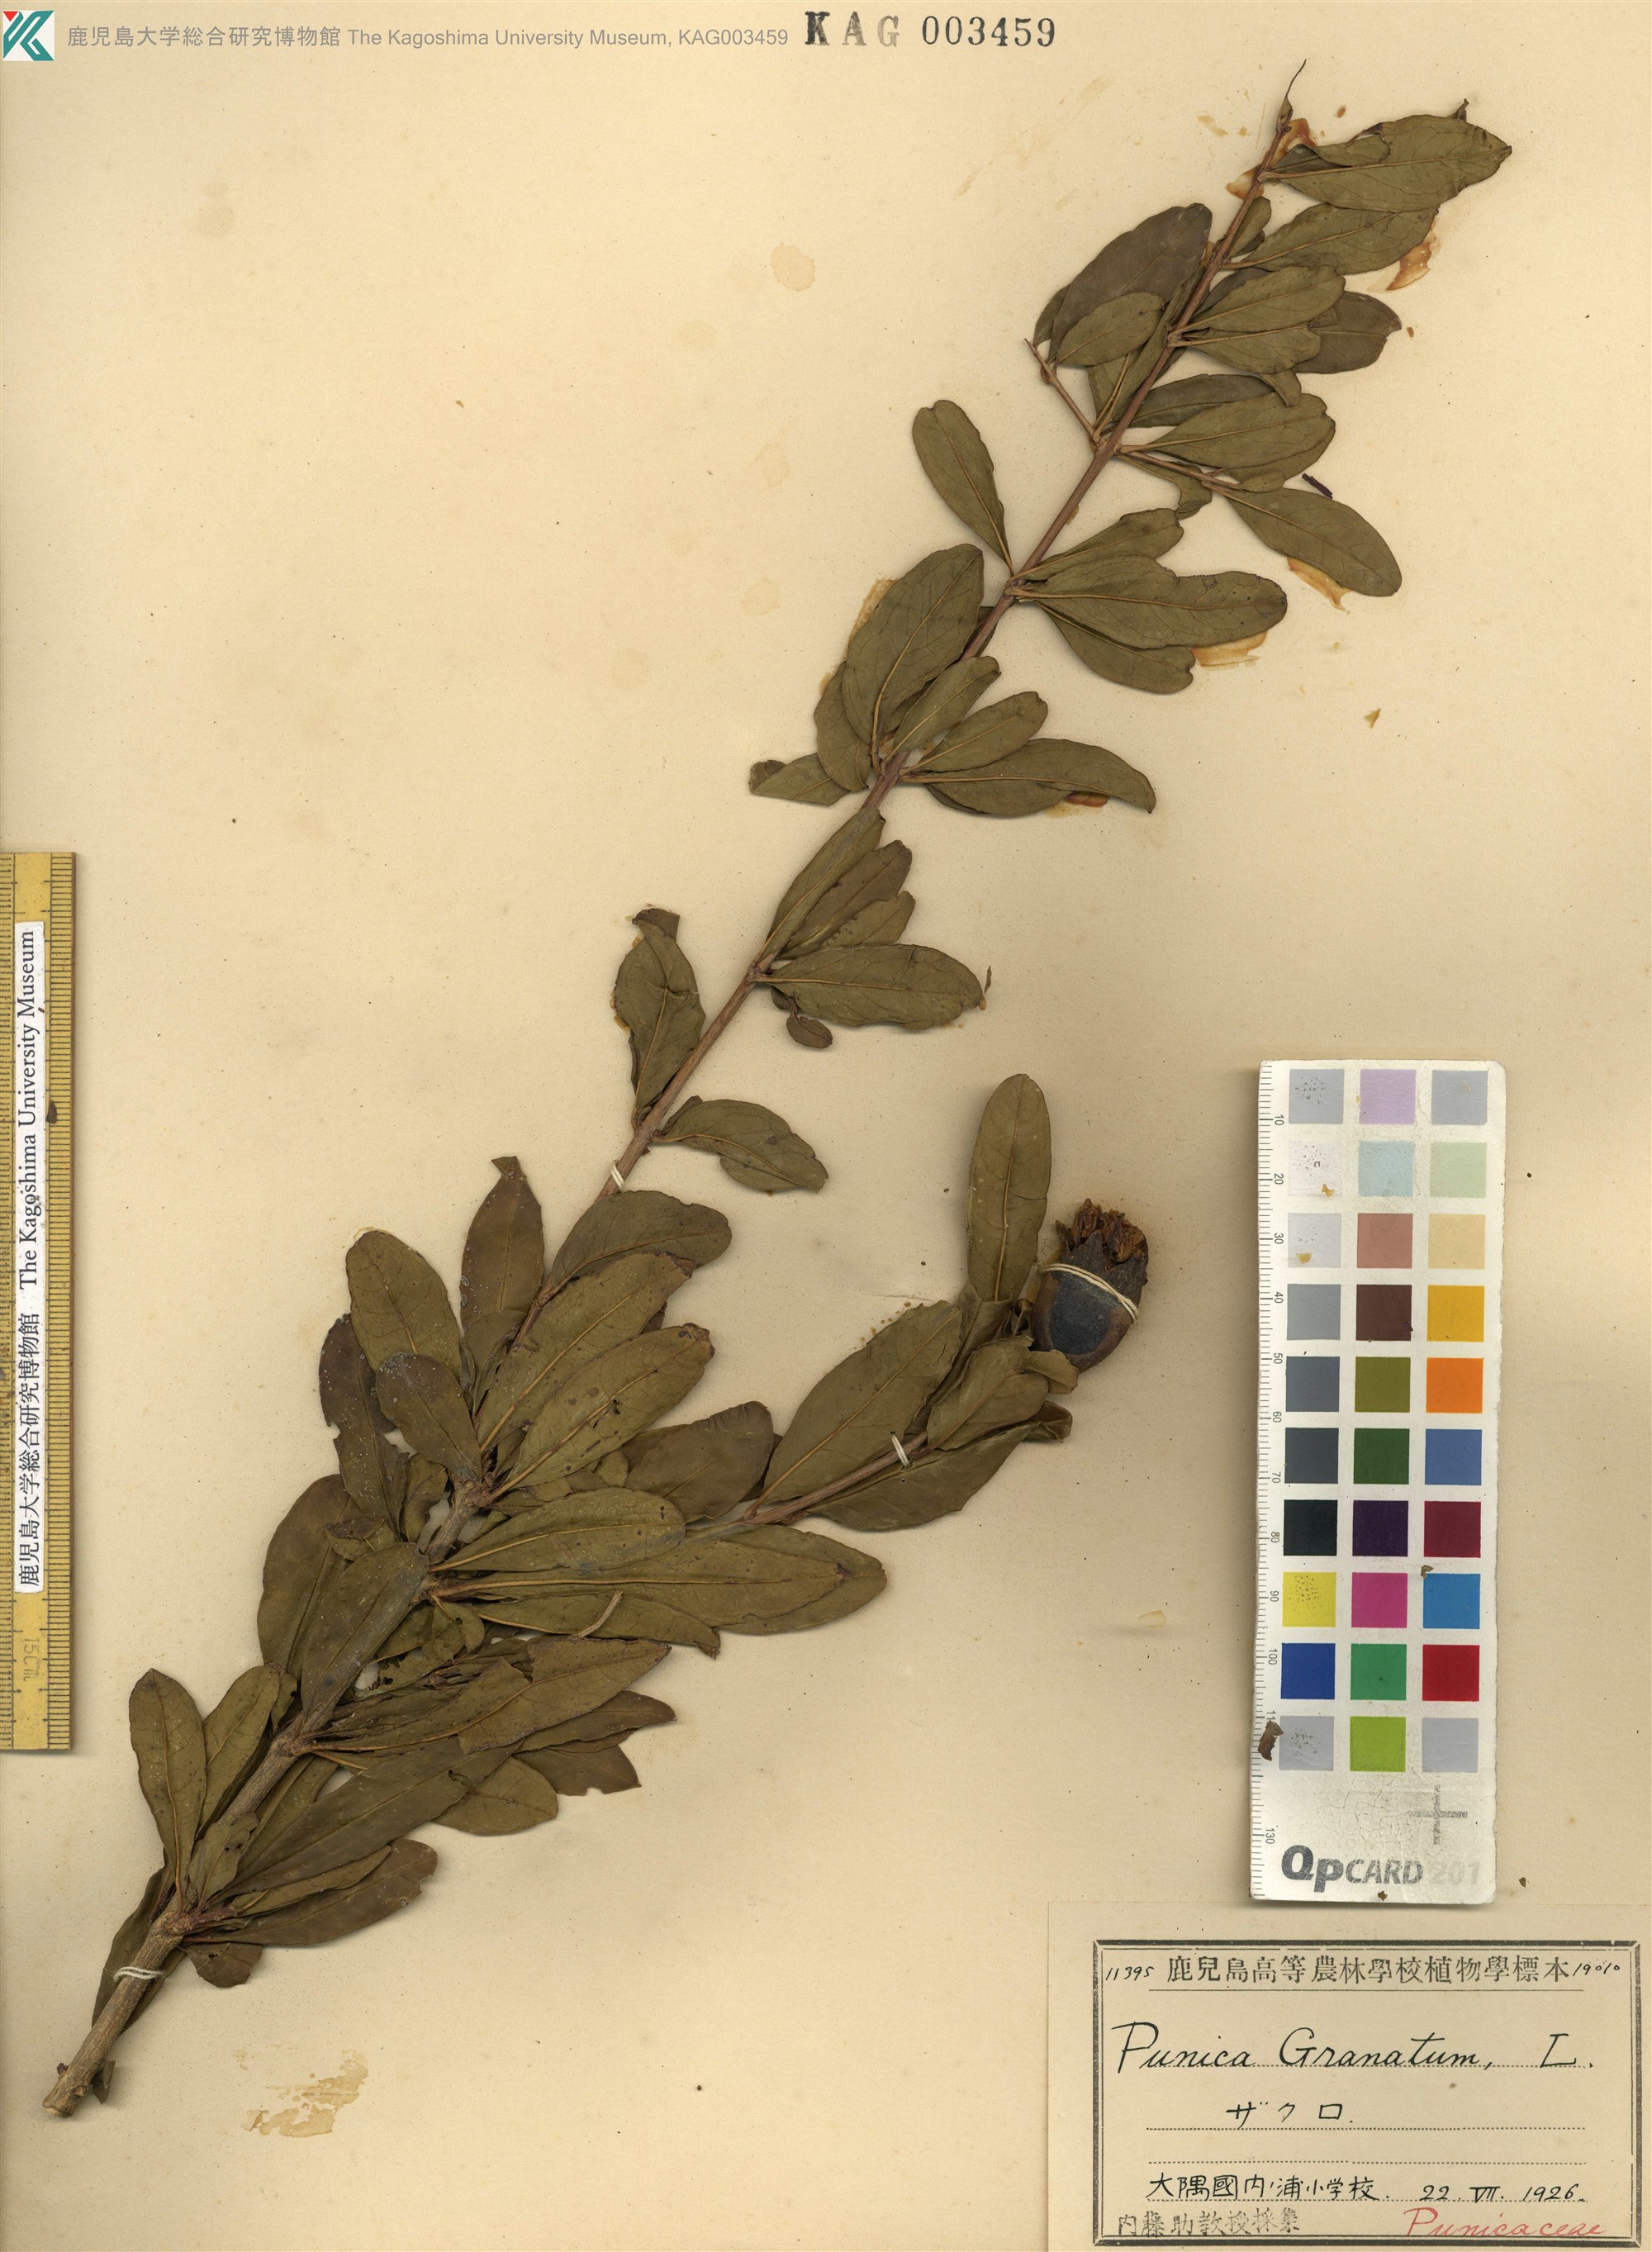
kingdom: Plantae
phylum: Tracheophyta
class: Magnoliopsida
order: Myrtales
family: Lythraceae
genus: Punica
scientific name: Punica granatum
